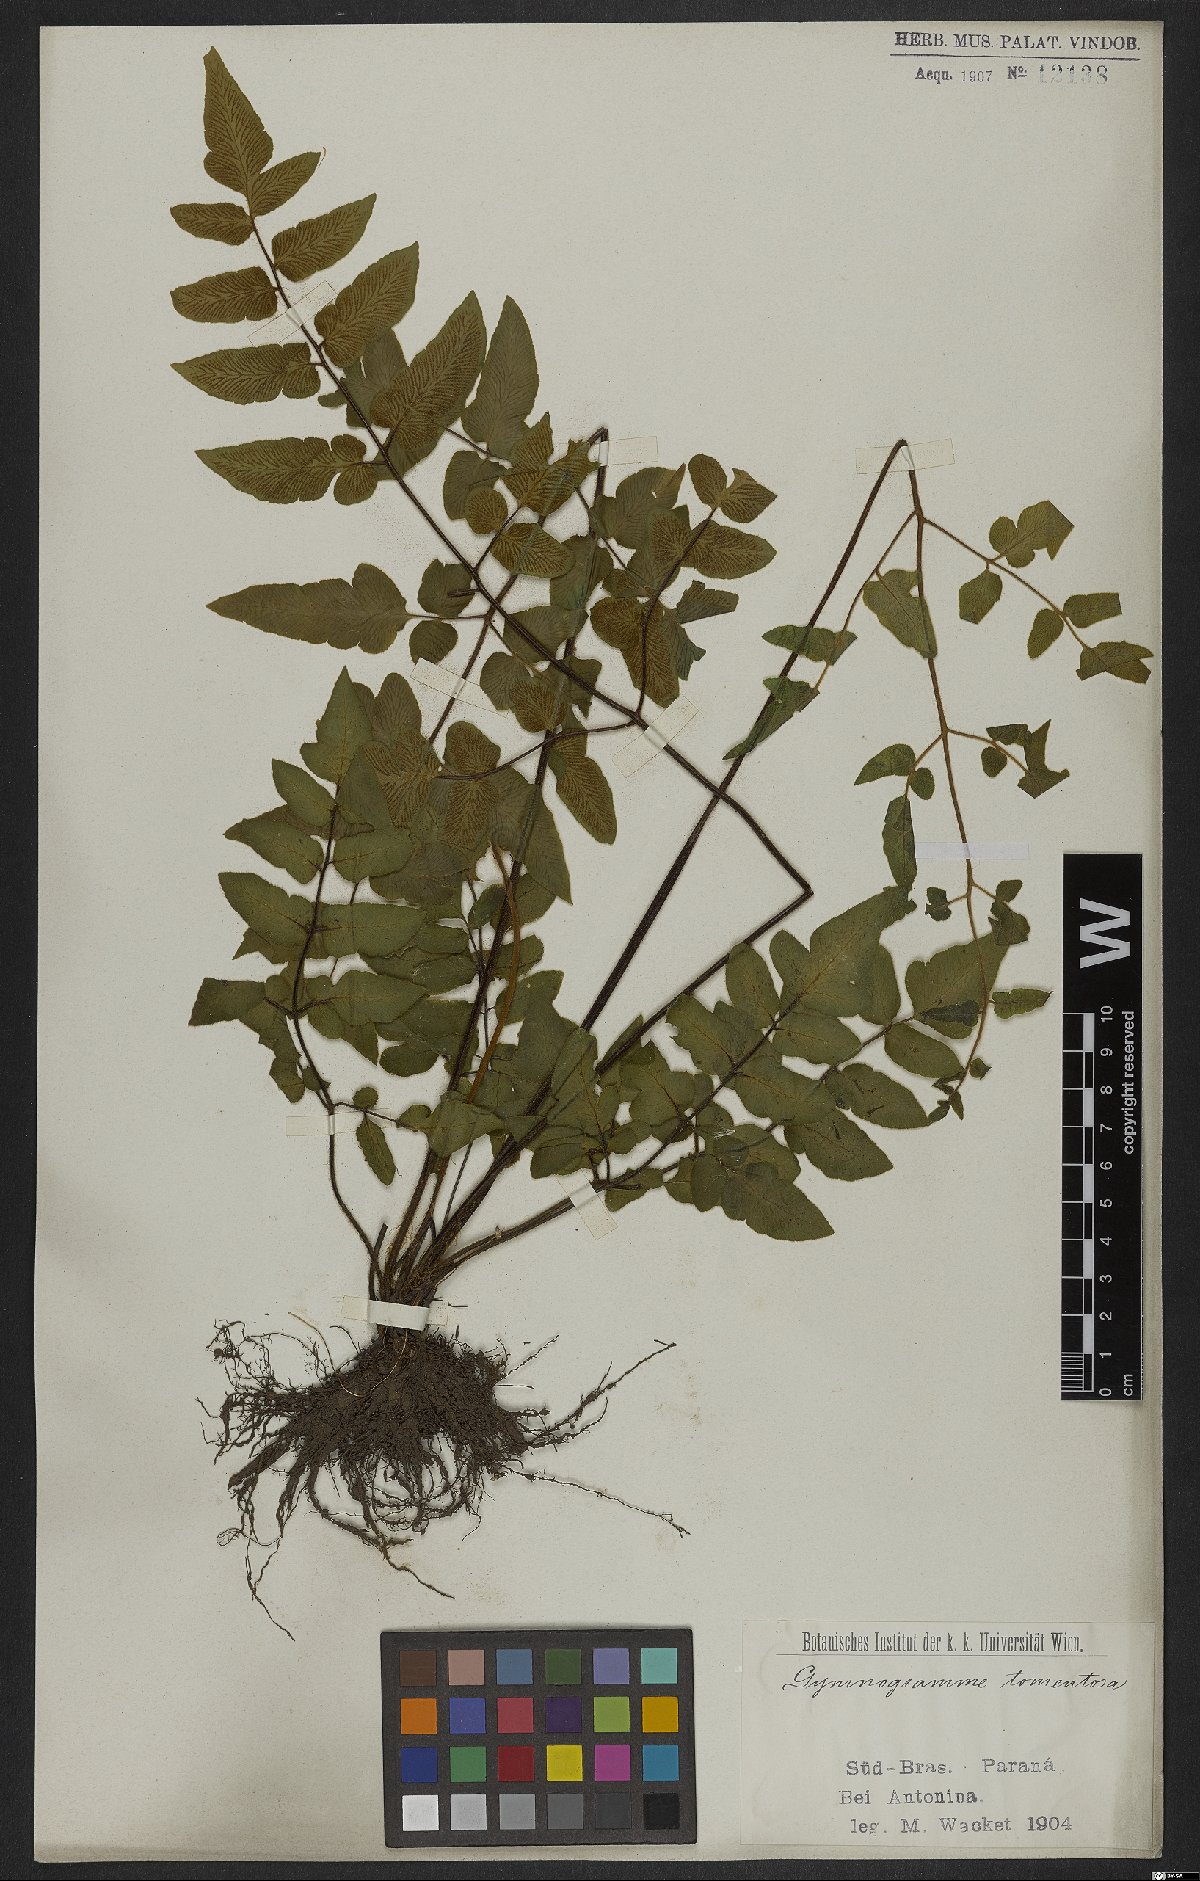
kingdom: Plantae
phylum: Tracheophyta
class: Polypodiopsida
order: Polypodiales
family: Pteridaceae
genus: Hemionitis
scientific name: Hemionitis tomentosa
